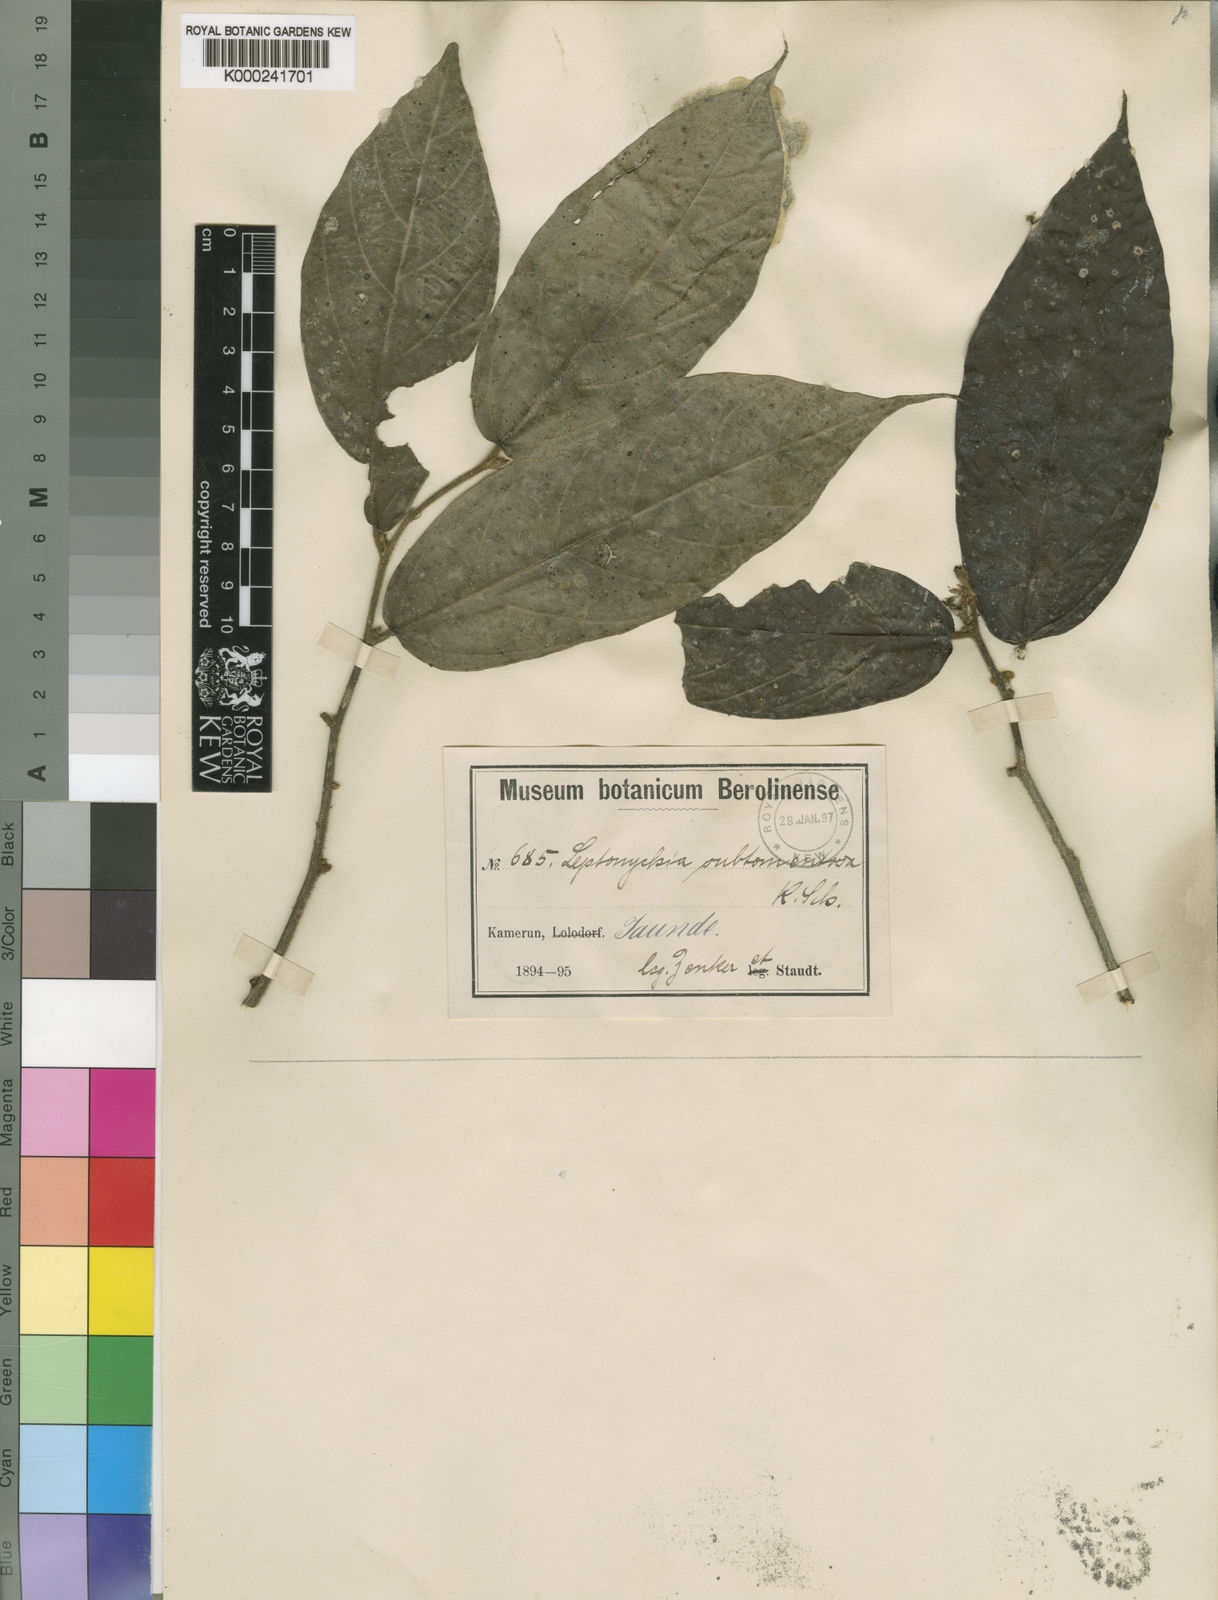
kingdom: Plantae
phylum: Tracheophyta
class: Magnoliopsida
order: Malvales
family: Malvaceae
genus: Leptonychia
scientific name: Leptonychia subtomentosa
